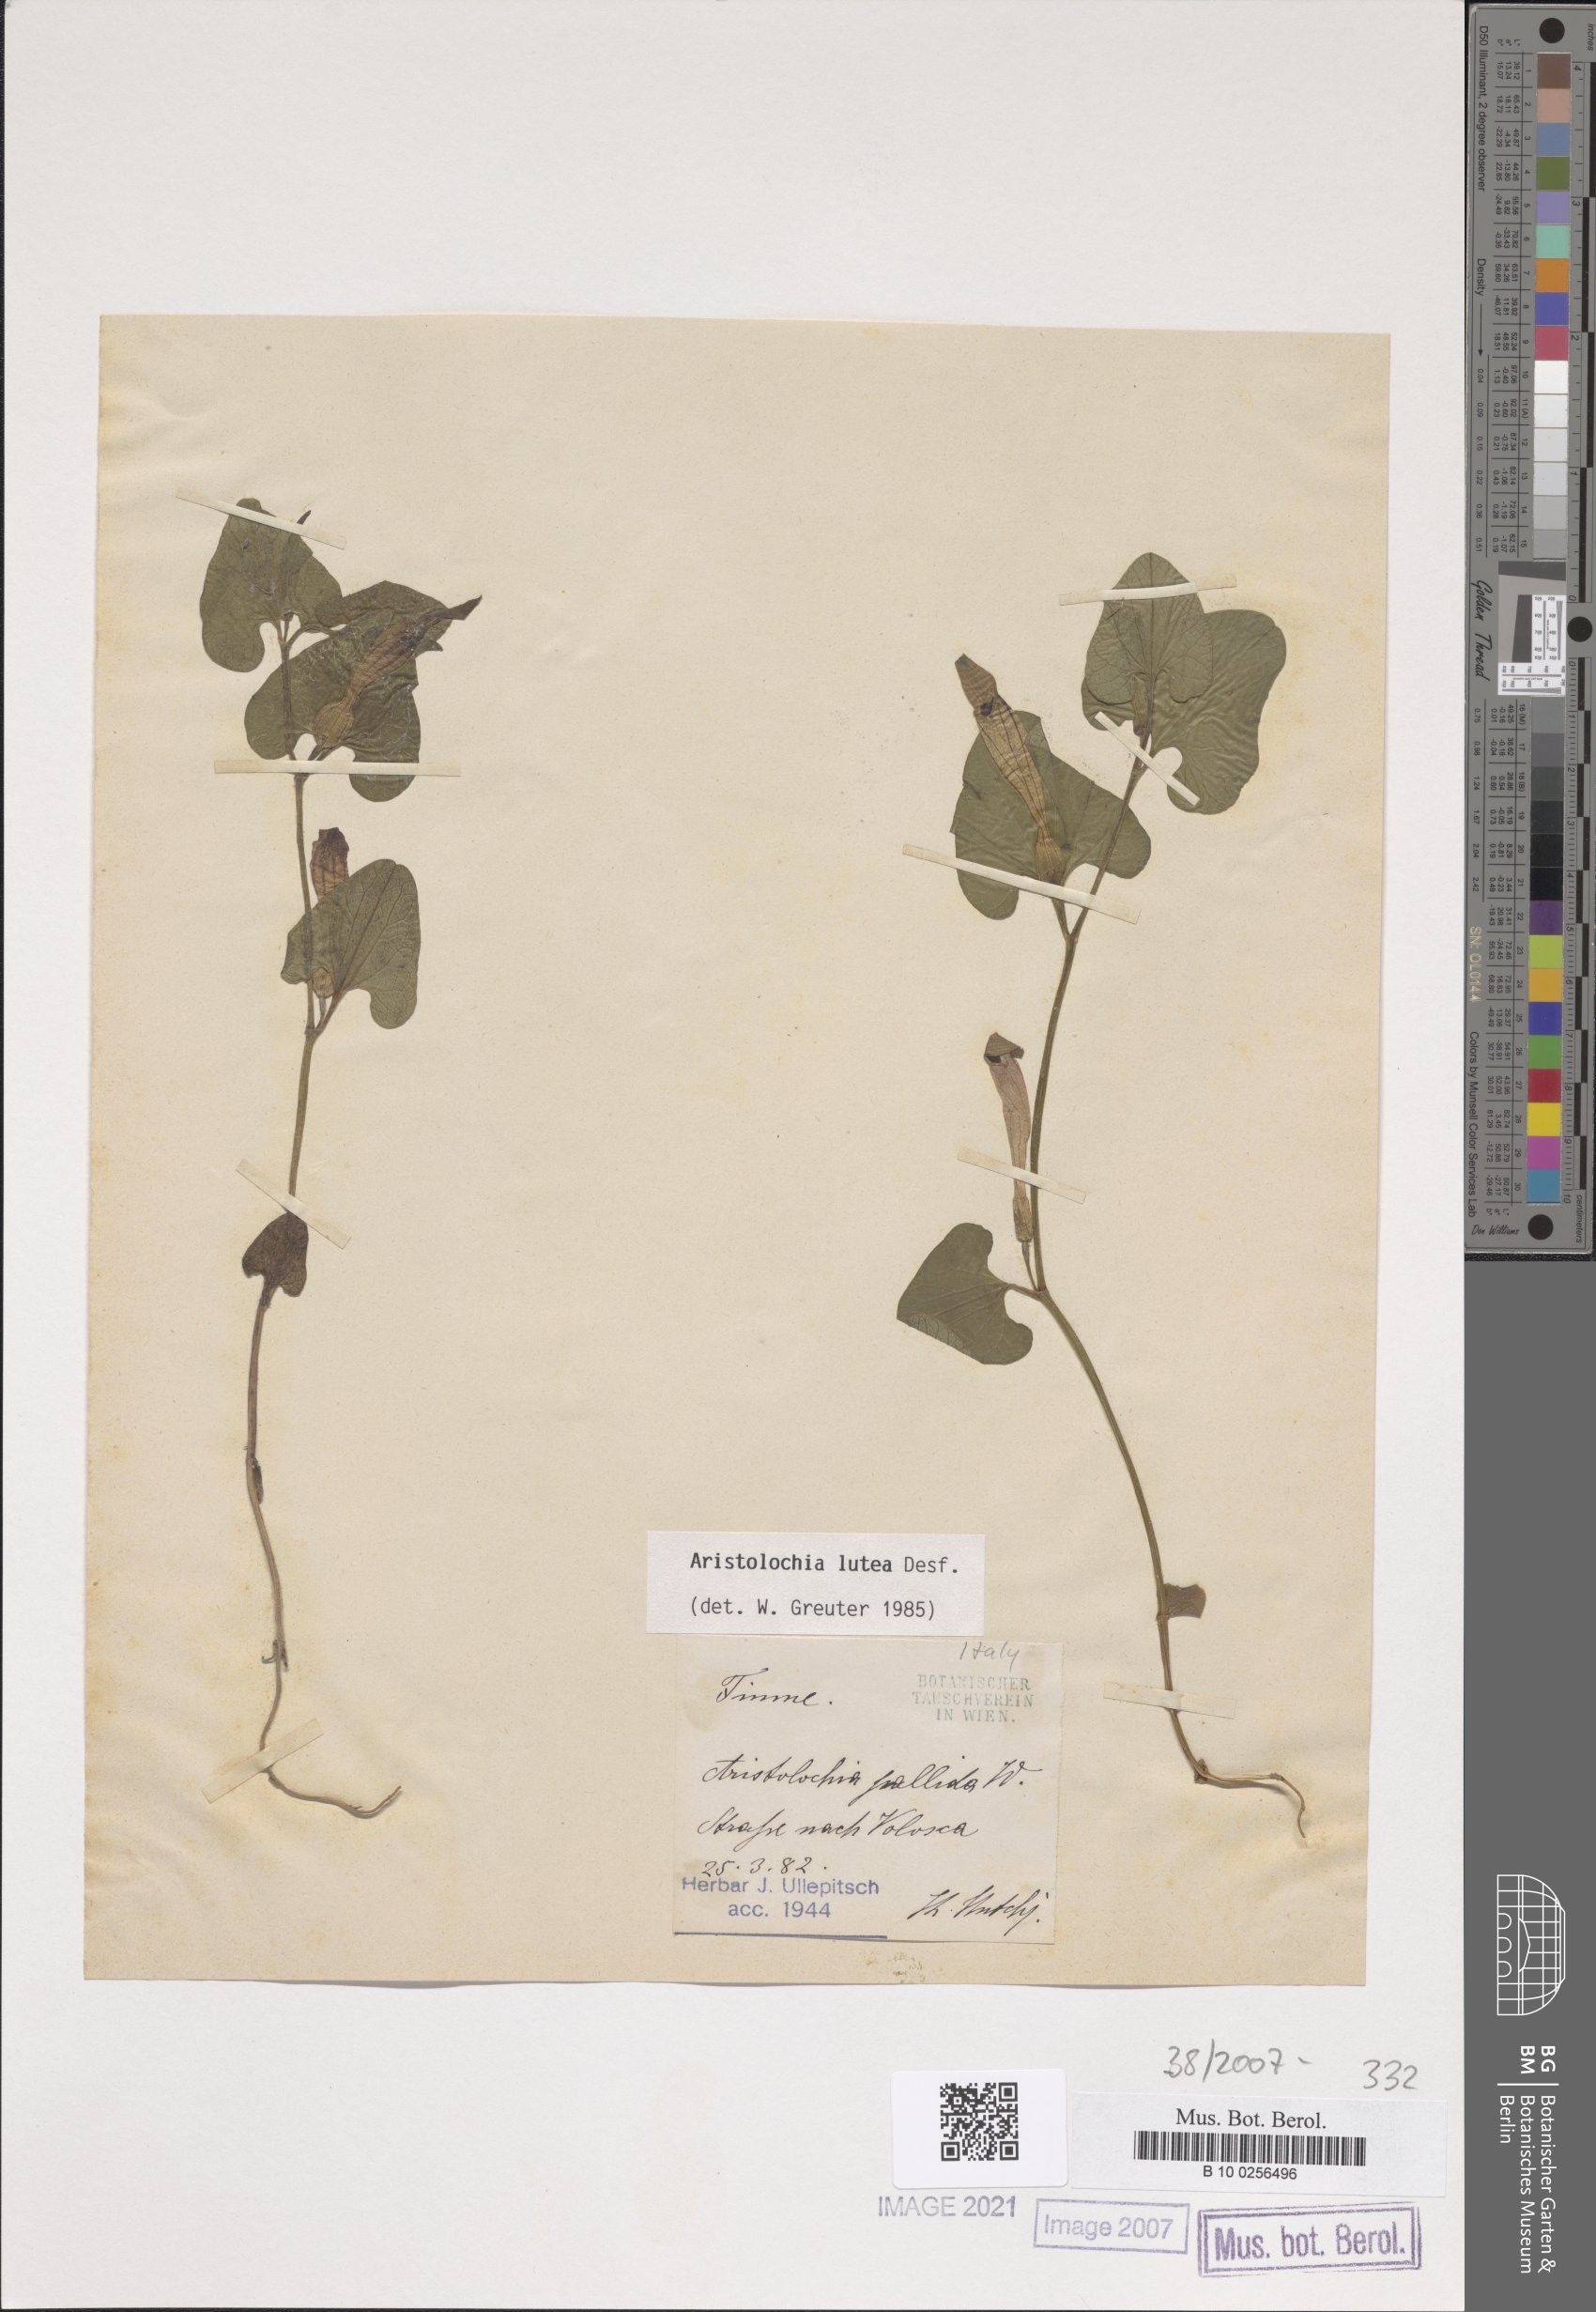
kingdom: Plantae
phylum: Tracheophyta
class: Magnoliopsida
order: Piperales
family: Aristolochiaceae
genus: Aristolochia
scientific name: Aristolochia lutea
